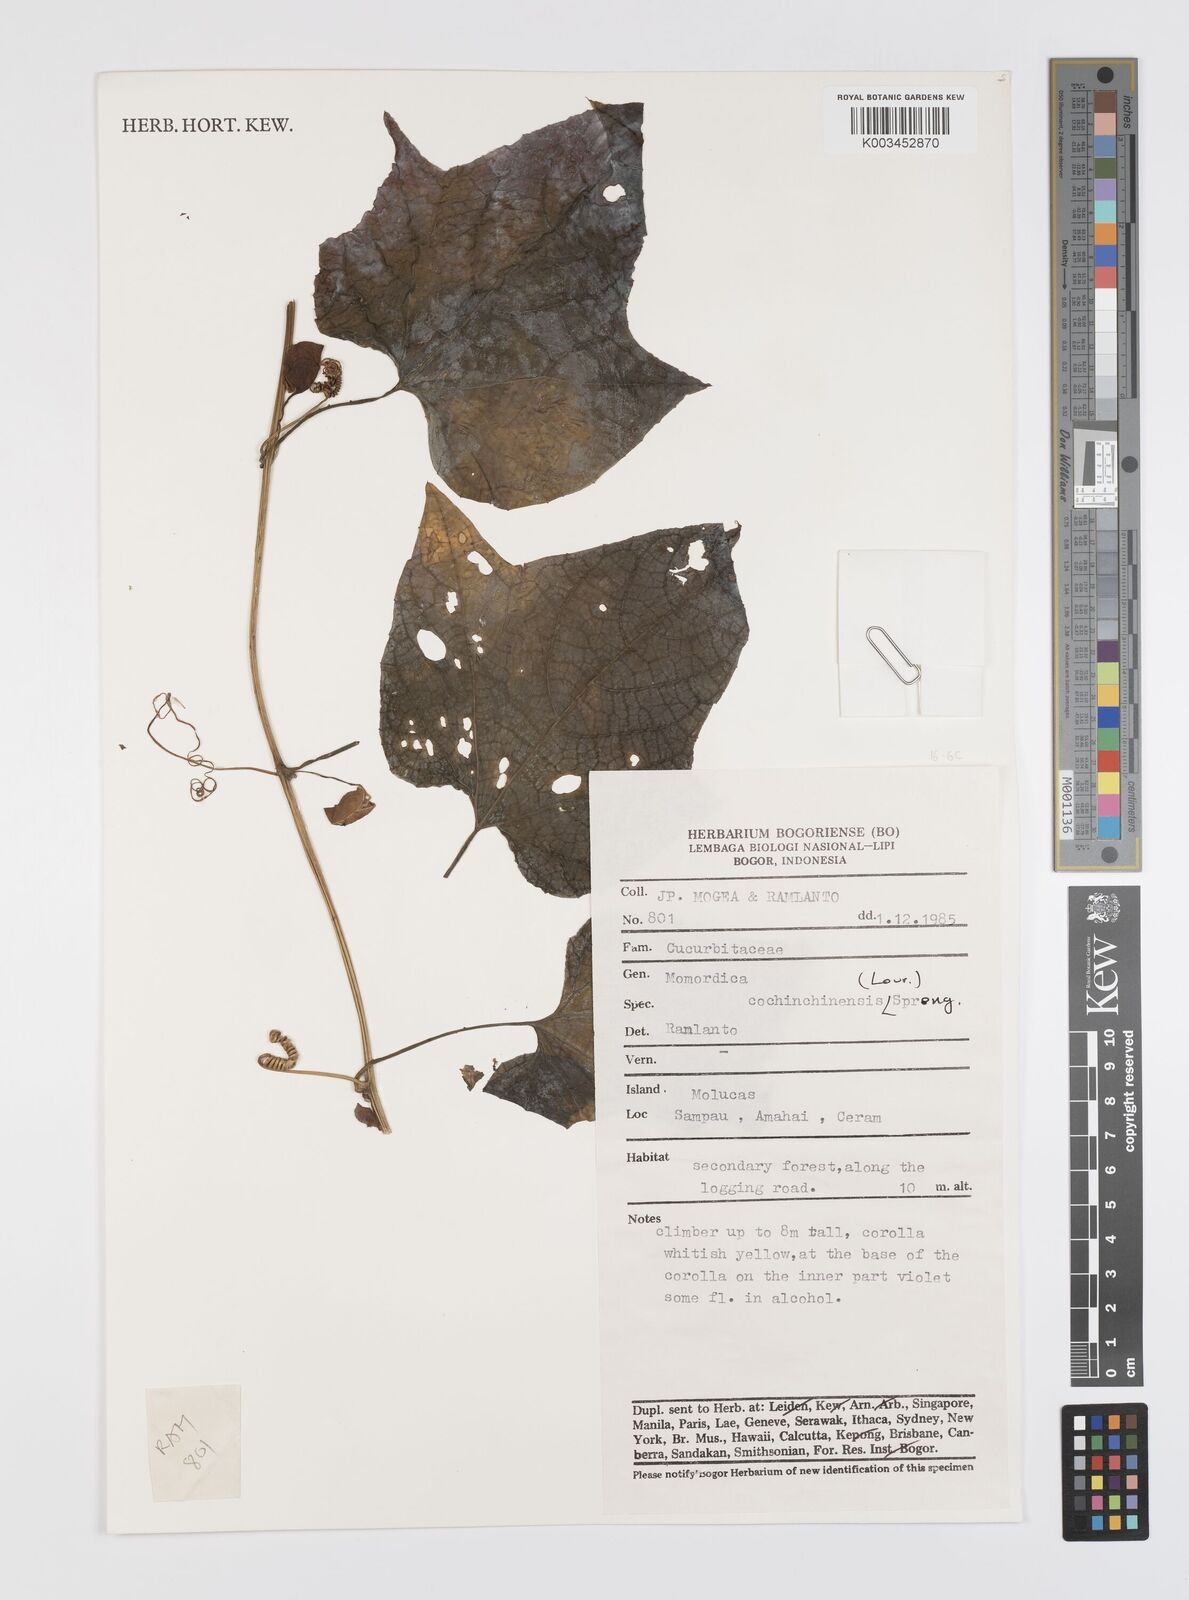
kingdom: Plantae
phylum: Tracheophyta
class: Magnoliopsida
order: Cucurbitales
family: Cucurbitaceae
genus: Momordica
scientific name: Momordica cochinchinensis
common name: Chinese bitter-cucumber
